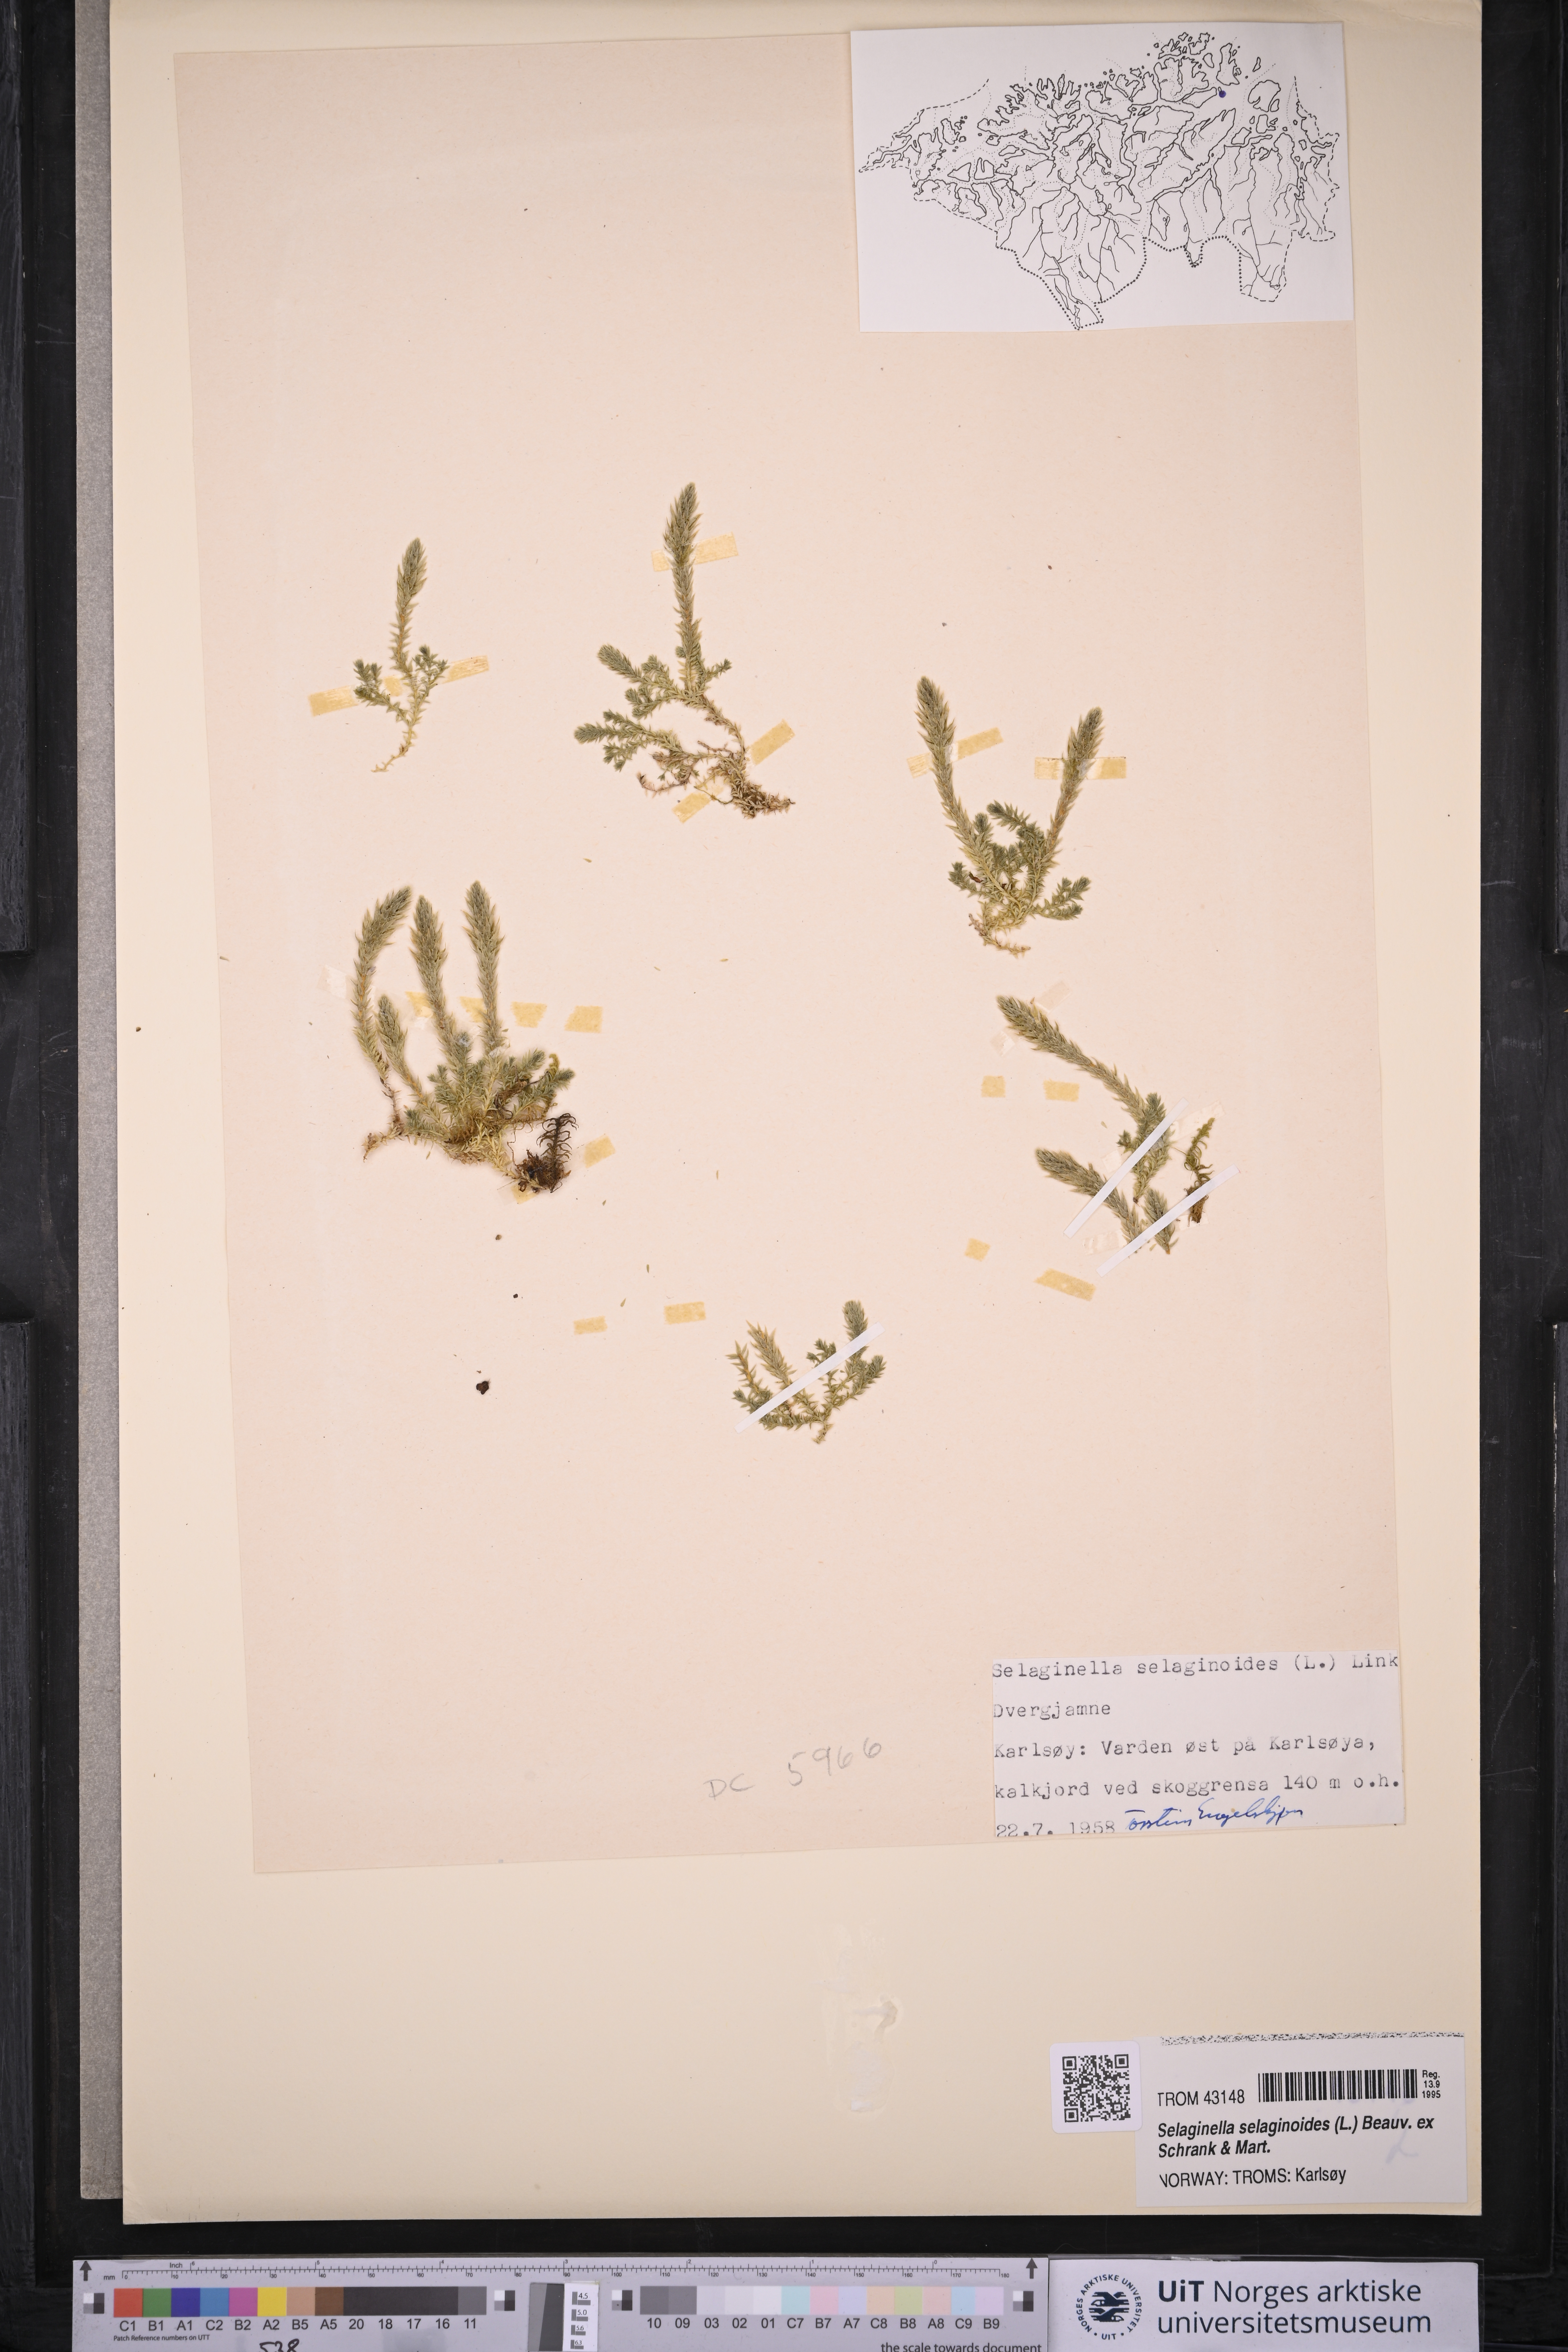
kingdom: Plantae
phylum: Tracheophyta
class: Lycopodiopsida
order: Selaginellales
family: Selaginellaceae
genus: Selaginella
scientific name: Selaginella selaginoides
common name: Prickly mountain-moss
